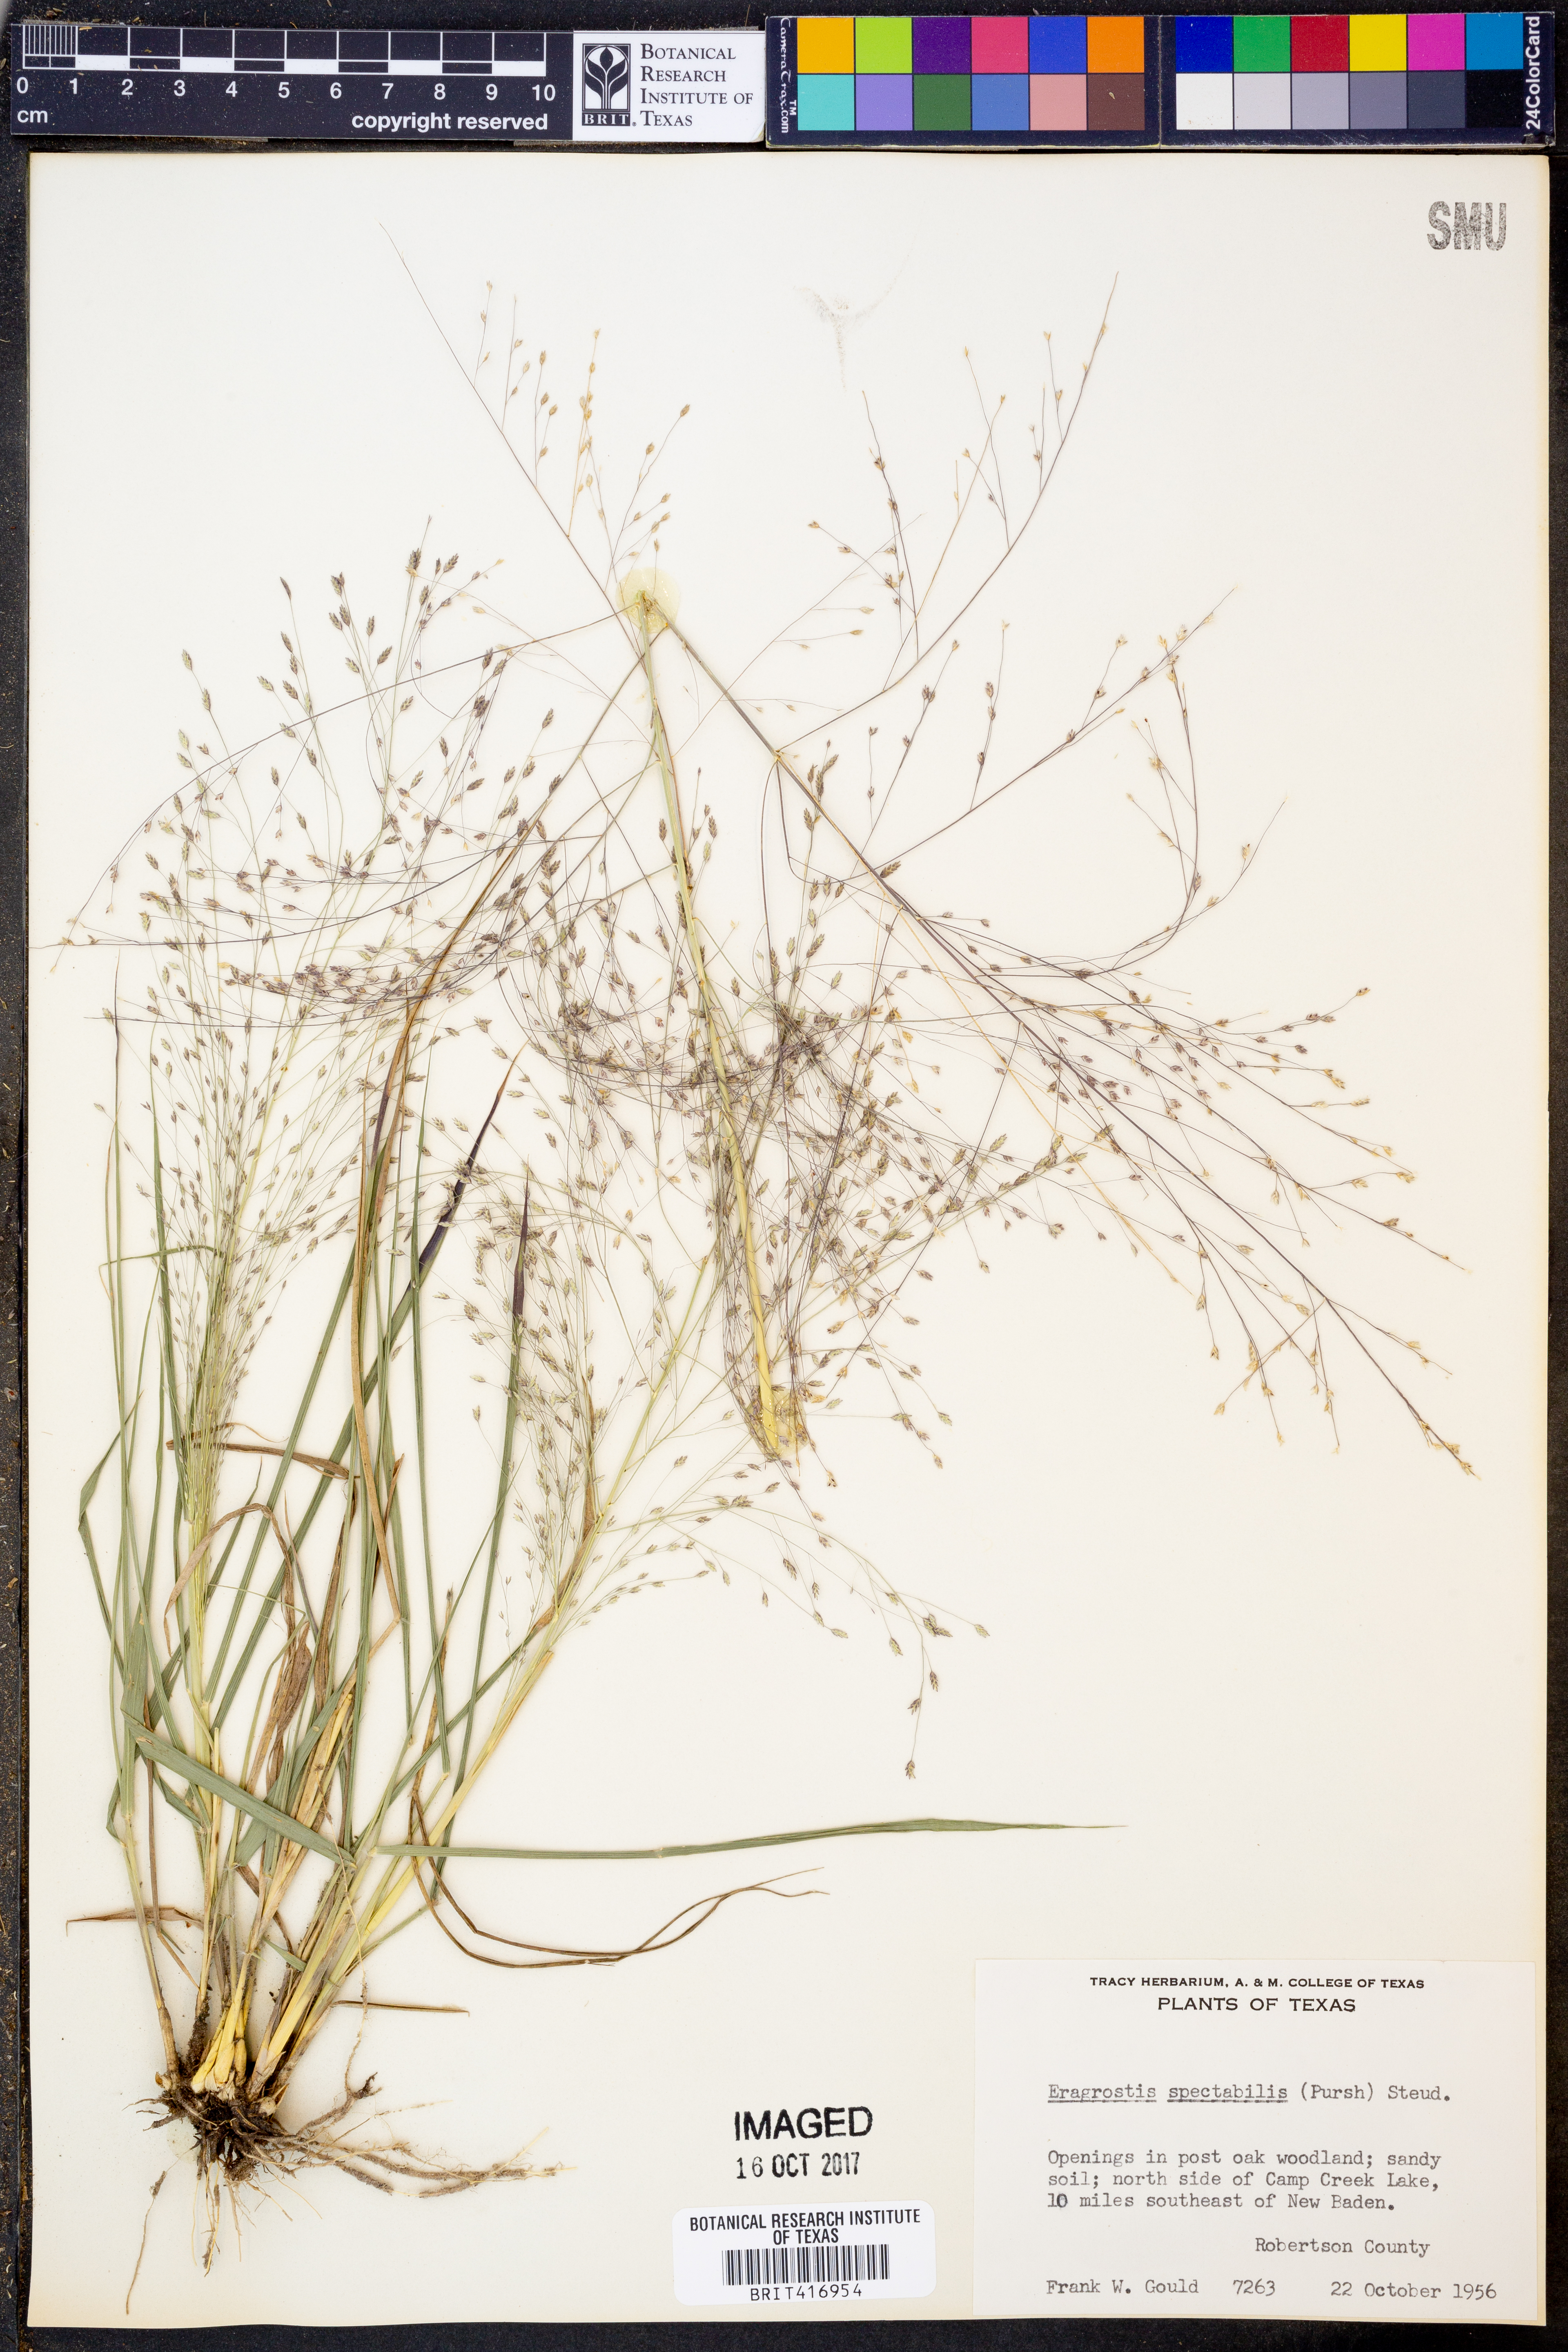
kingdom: Plantae
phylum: Tracheophyta
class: Liliopsida
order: Poales
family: Poaceae
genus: Eragrostis
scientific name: Eragrostis spectabilis
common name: Petticoat-climber
